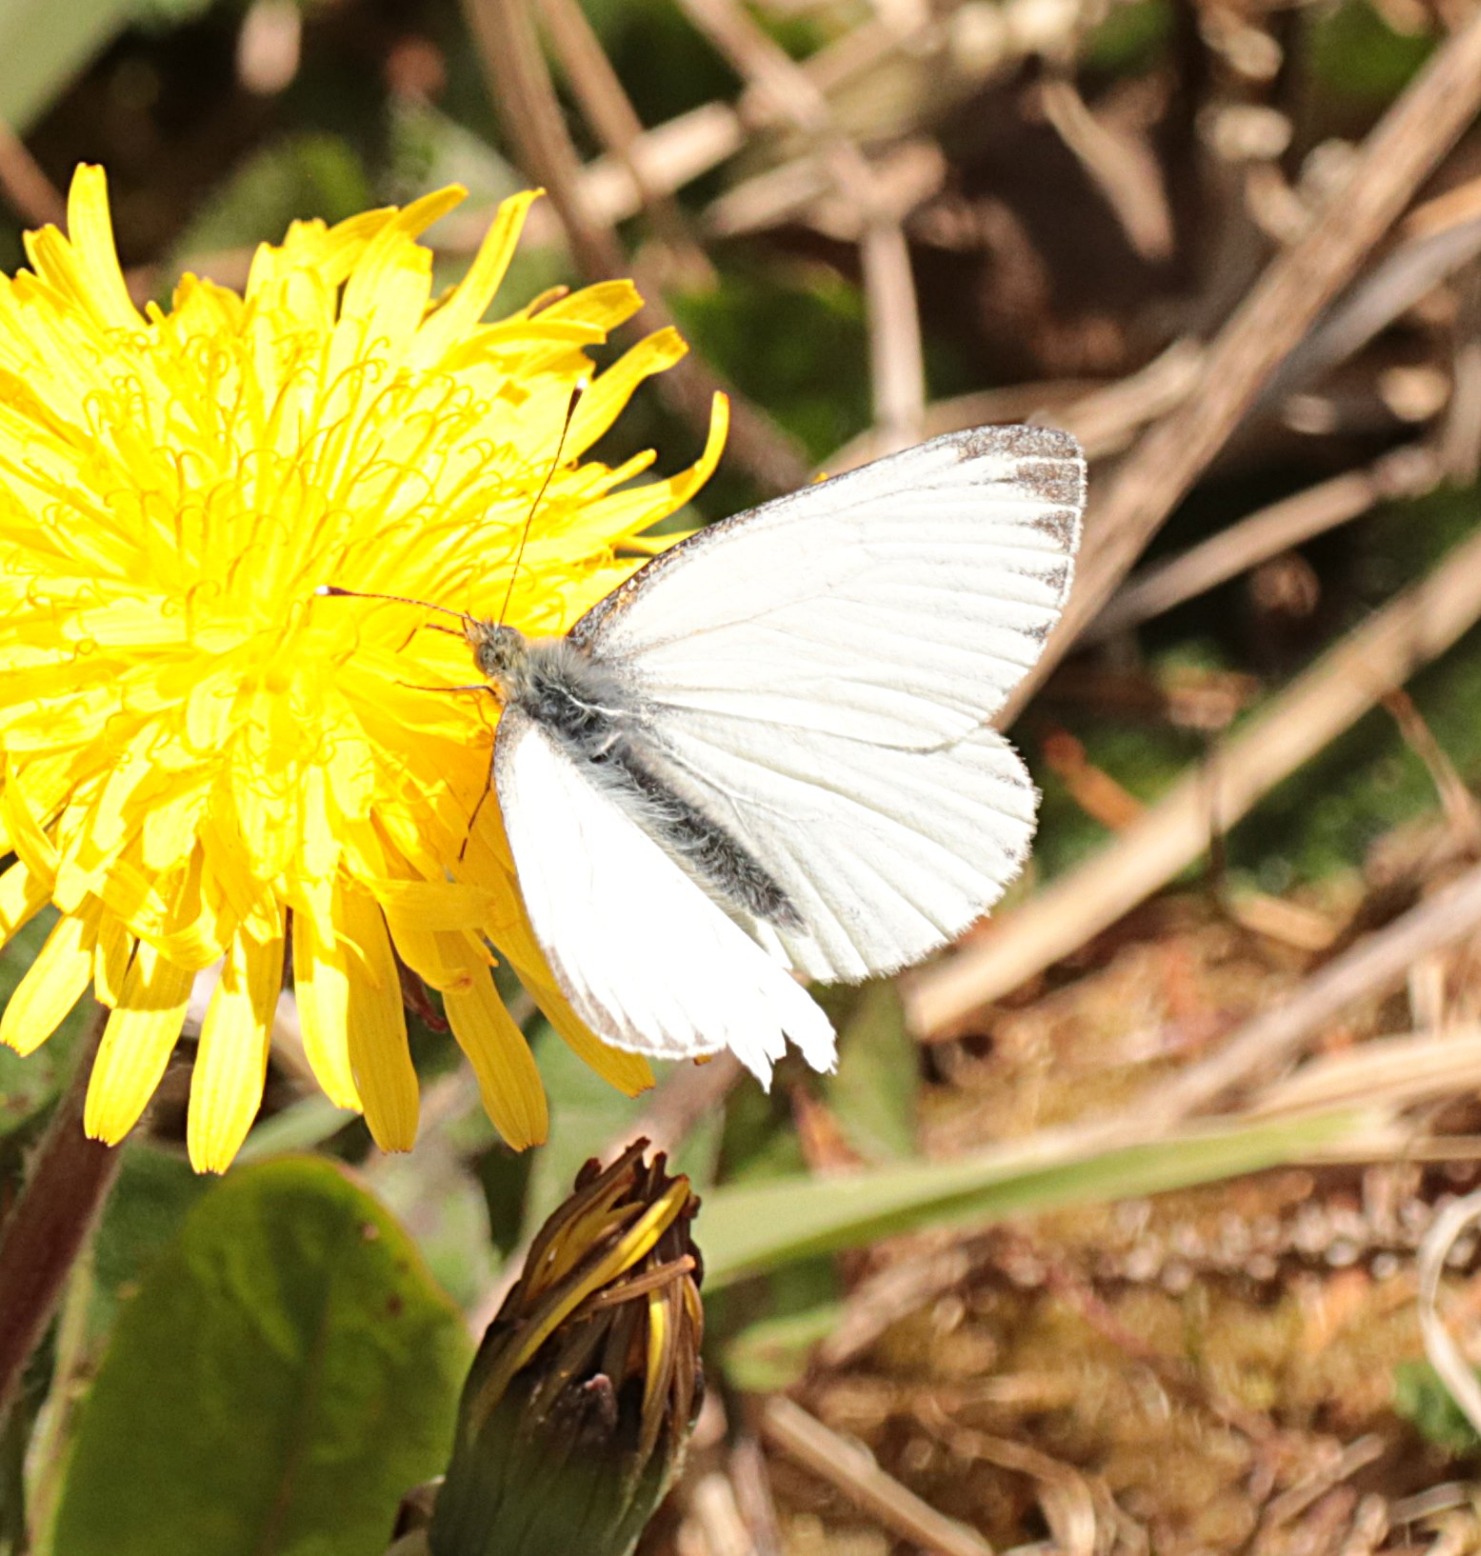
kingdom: Animalia
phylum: Arthropoda
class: Insecta
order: Lepidoptera
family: Pieridae
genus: Pieris
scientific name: Pieris napi
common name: Grønåret kålsommerfugl
